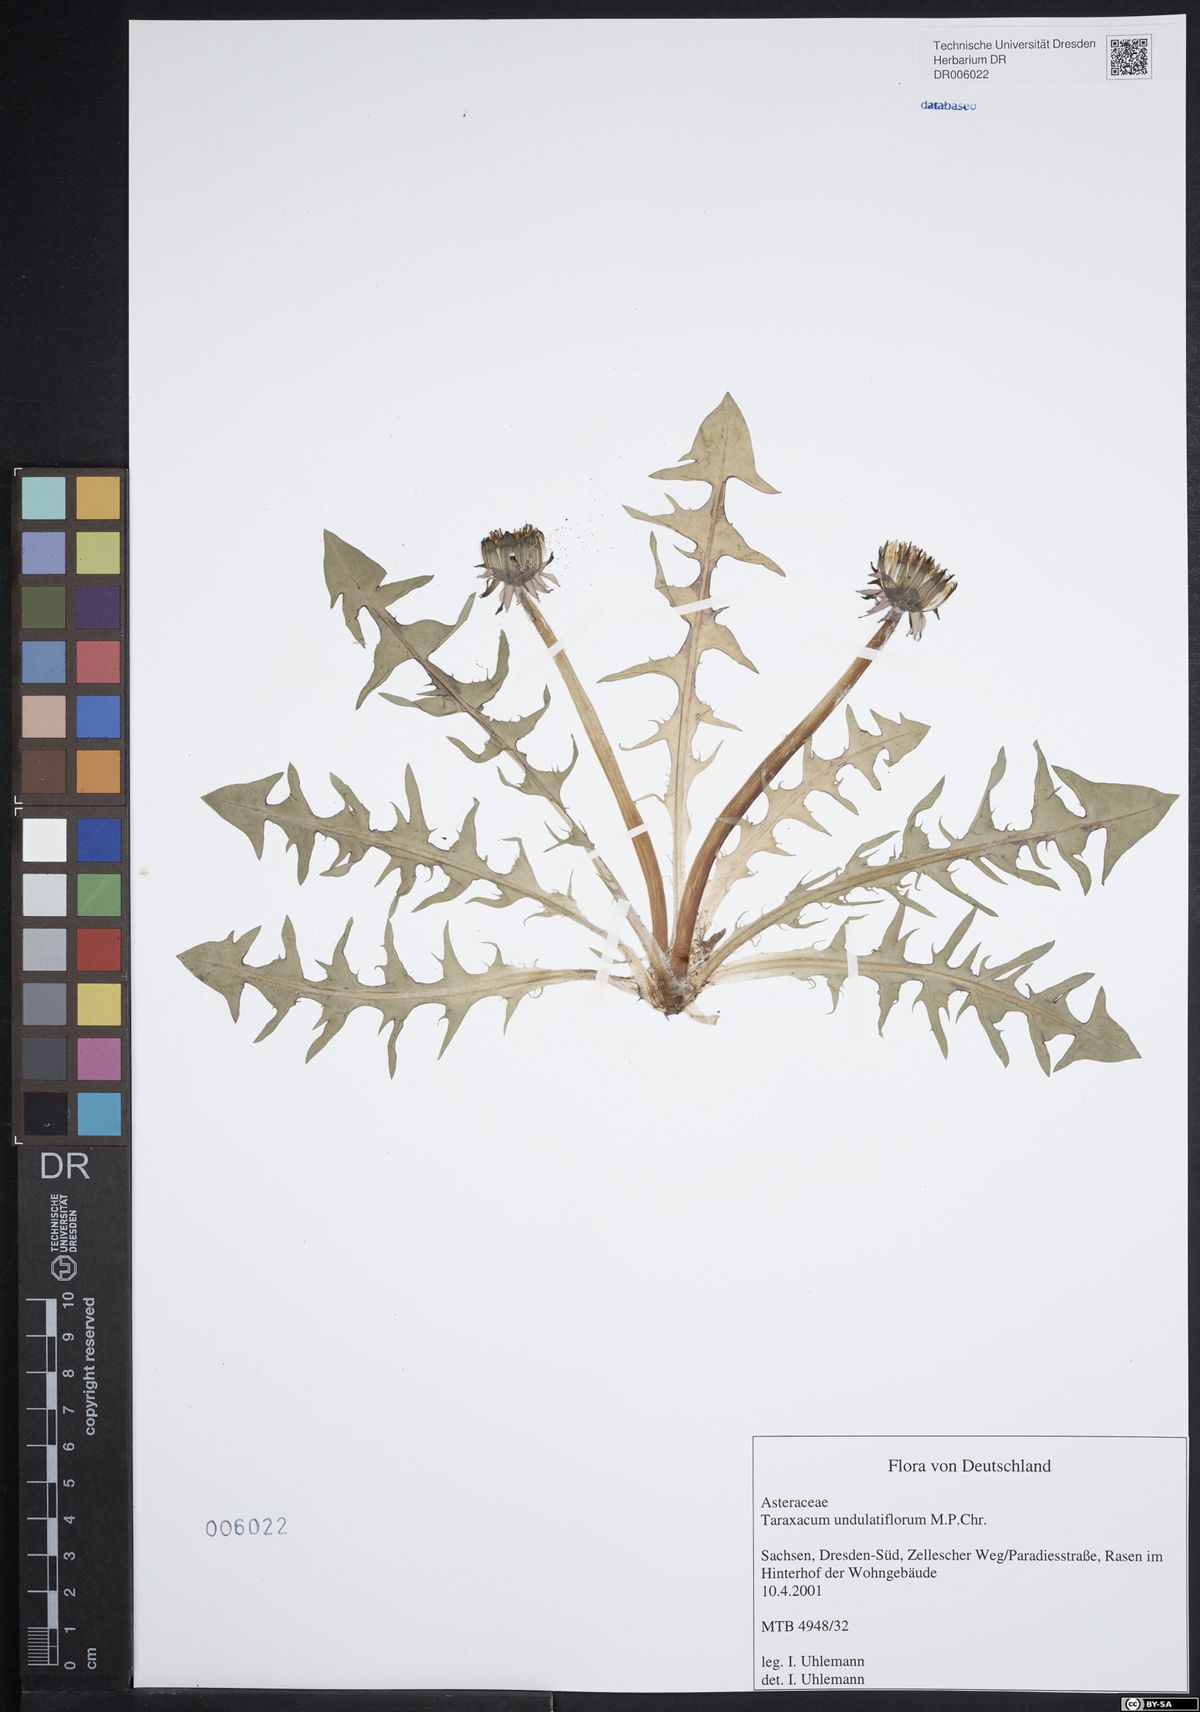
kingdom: Plantae
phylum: Tracheophyta
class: Magnoliopsida
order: Asterales
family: Asteraceae
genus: Taraxacum
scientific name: Taraxacum undulatiflorum
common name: Dull-leaved dandelion
